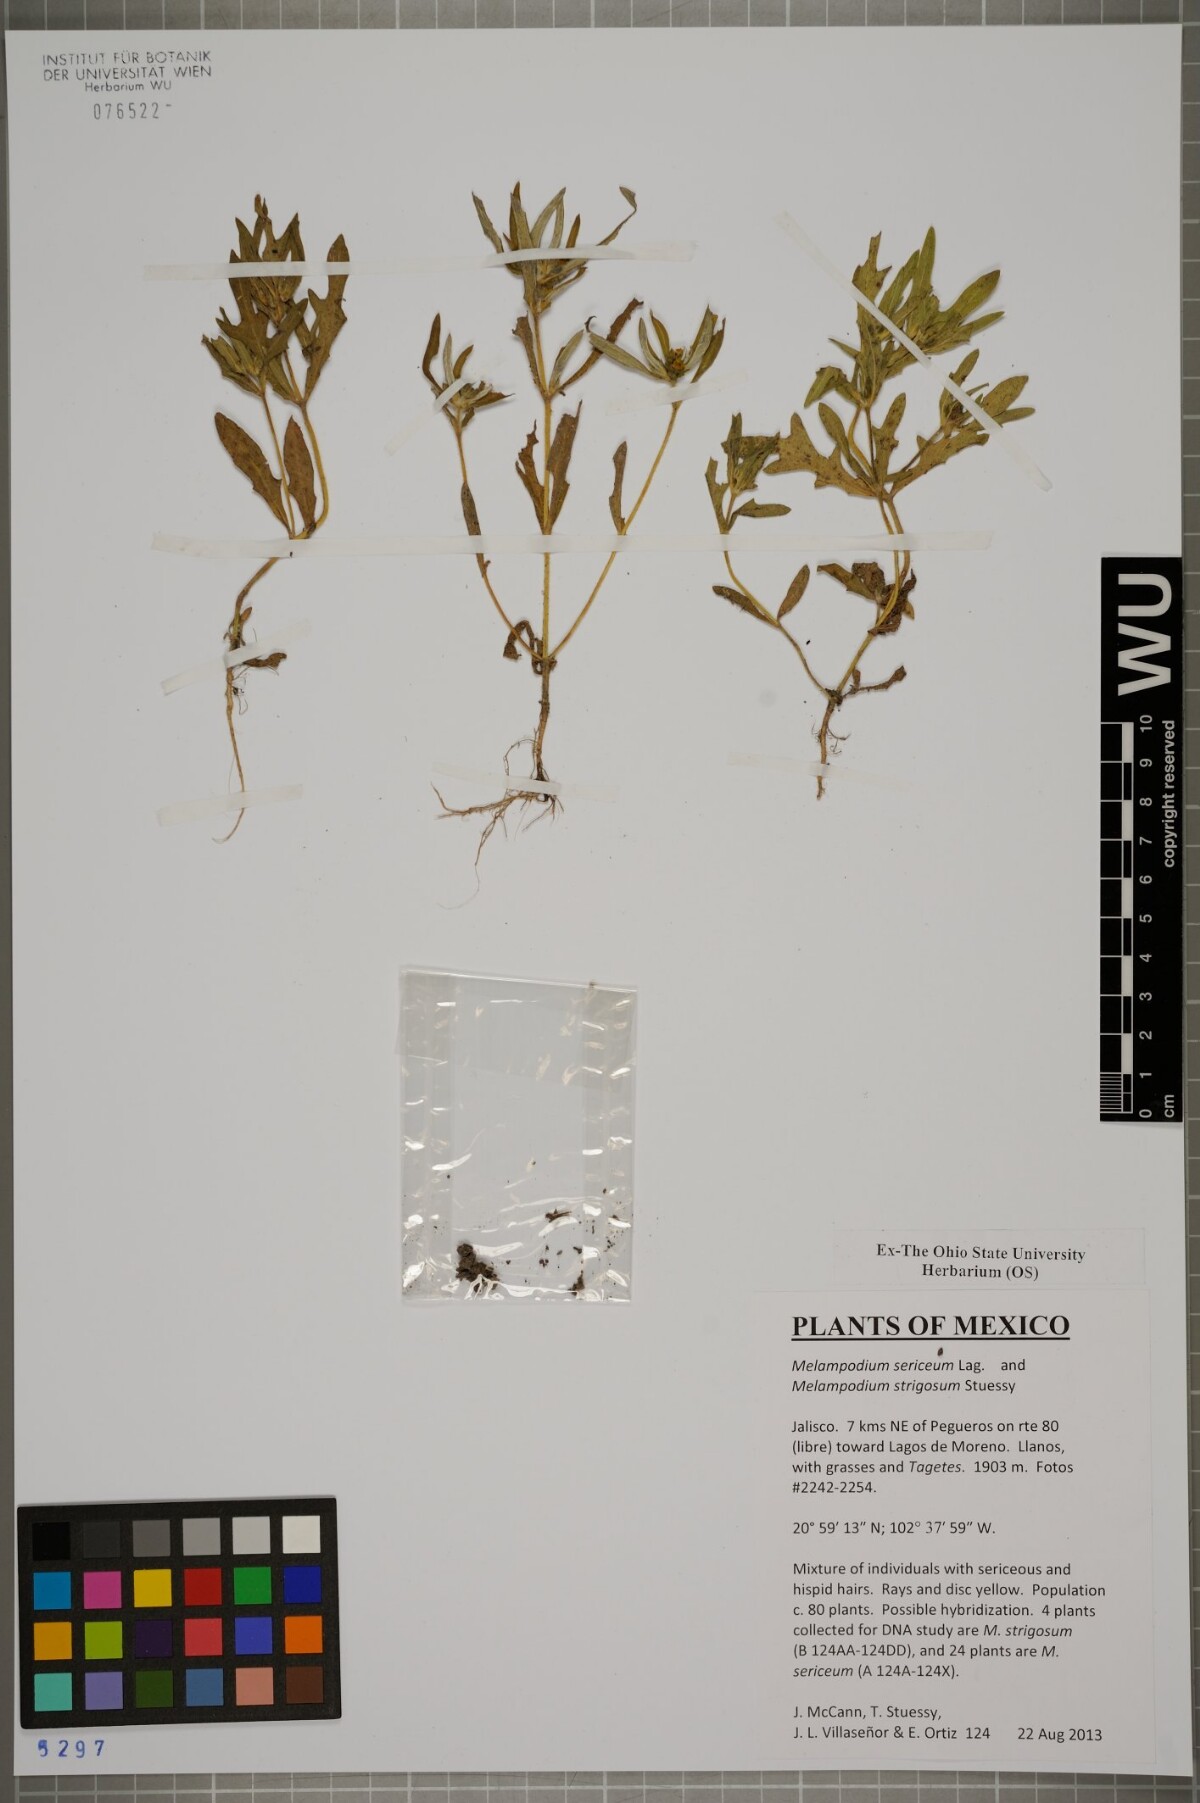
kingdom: Plantae
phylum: Tracheophyta
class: Magnoliopsida
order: Asterales
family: Asteraceae
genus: Melampodium
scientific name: Melampodium sericeum
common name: Rough blackfoot
